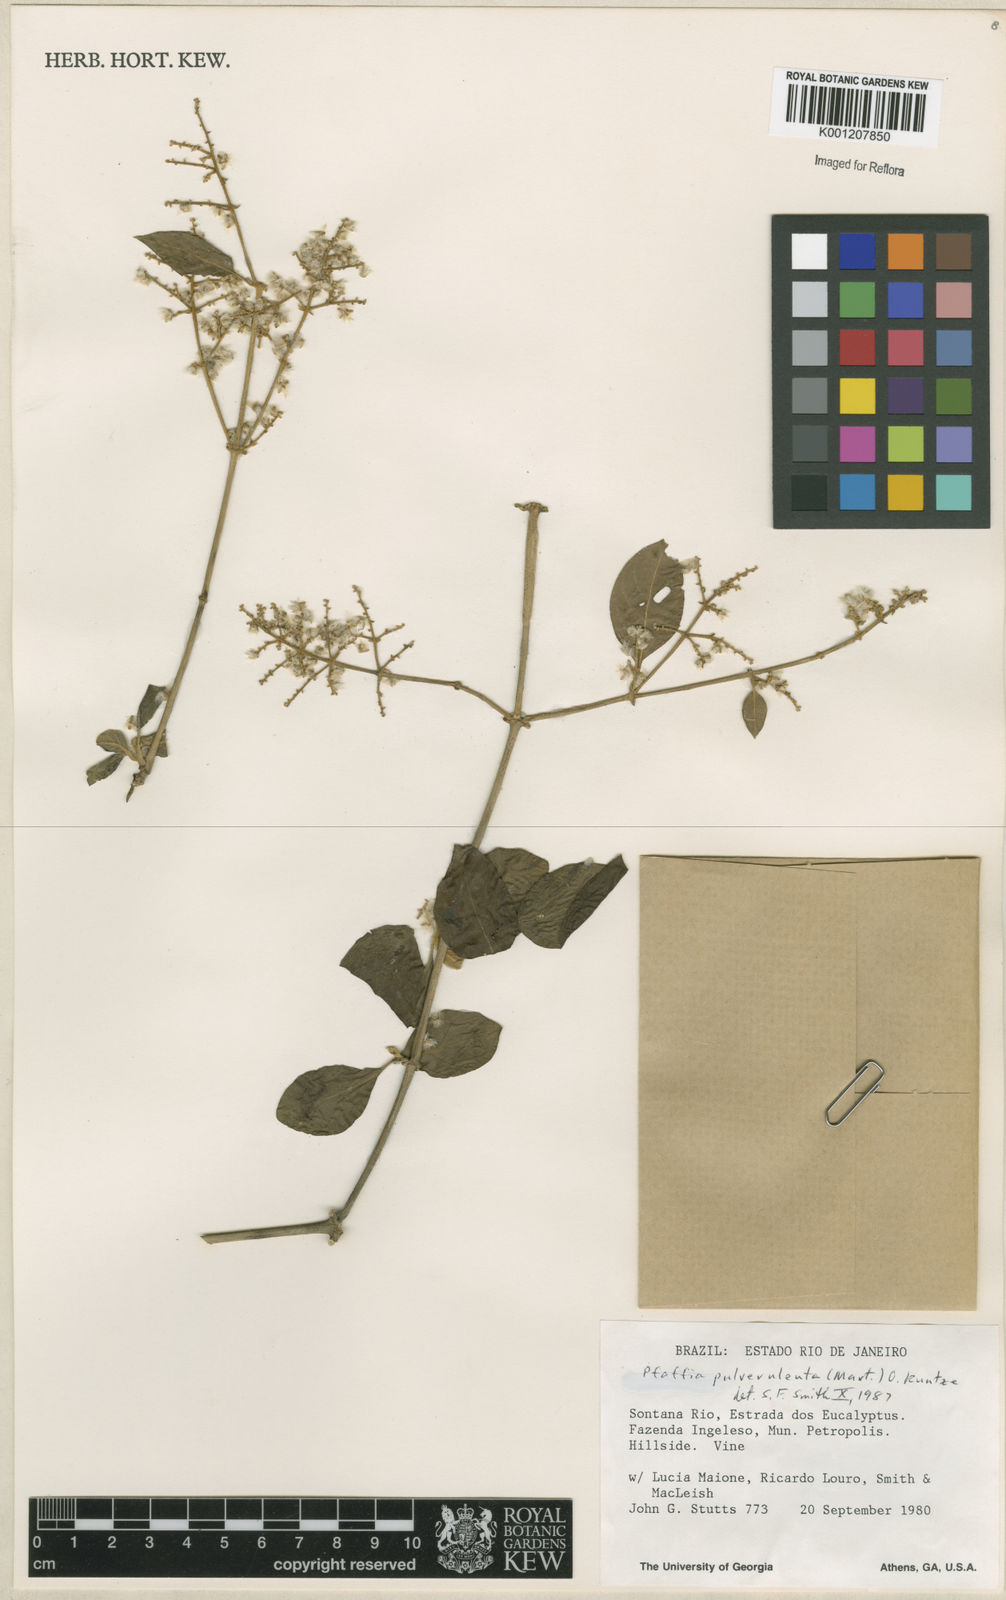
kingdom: Plantae
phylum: Tracheophyta
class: Magnoliopsida
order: Caryophyllales
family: Amaranthaceae
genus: Hebanthe
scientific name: Hebanthe pulverulenta
